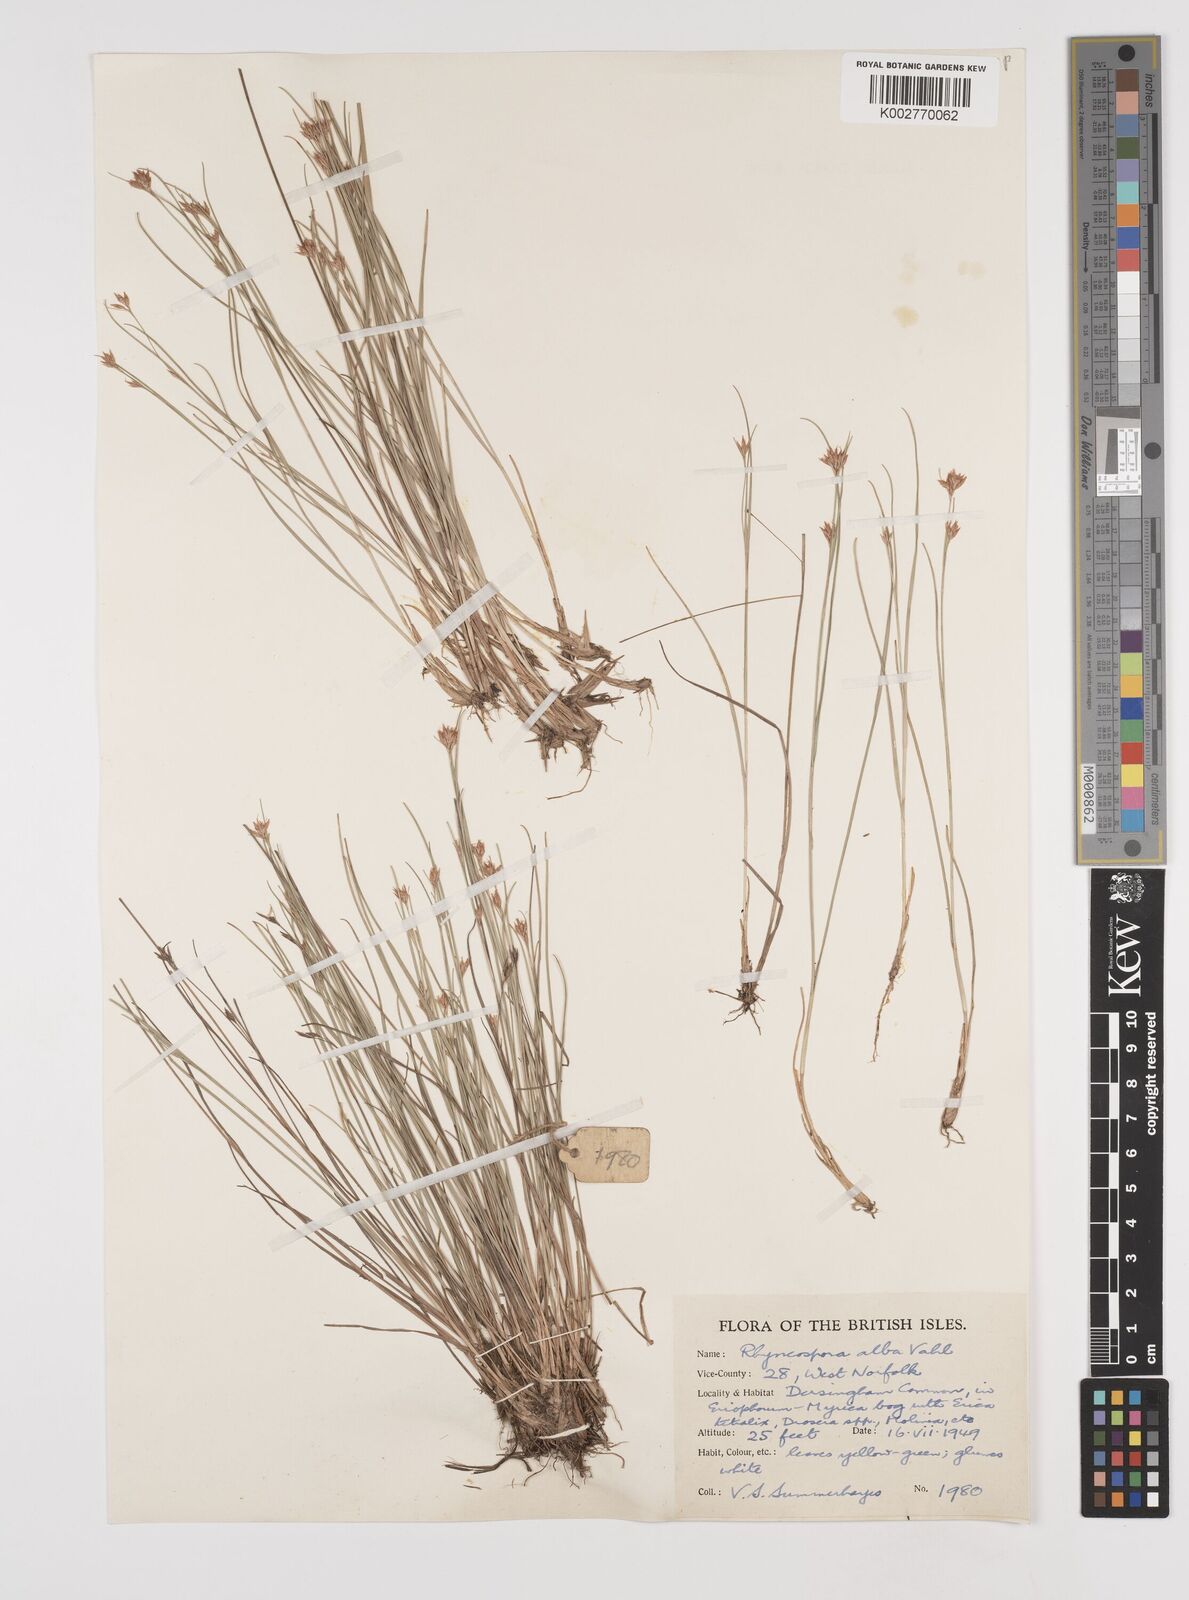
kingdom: Plantae
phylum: Tracheophyta
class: Liliopsida
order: Poales
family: Cyperaceae
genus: Rhynchospora
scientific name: Rhynchospora alba
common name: White beak-sedge
